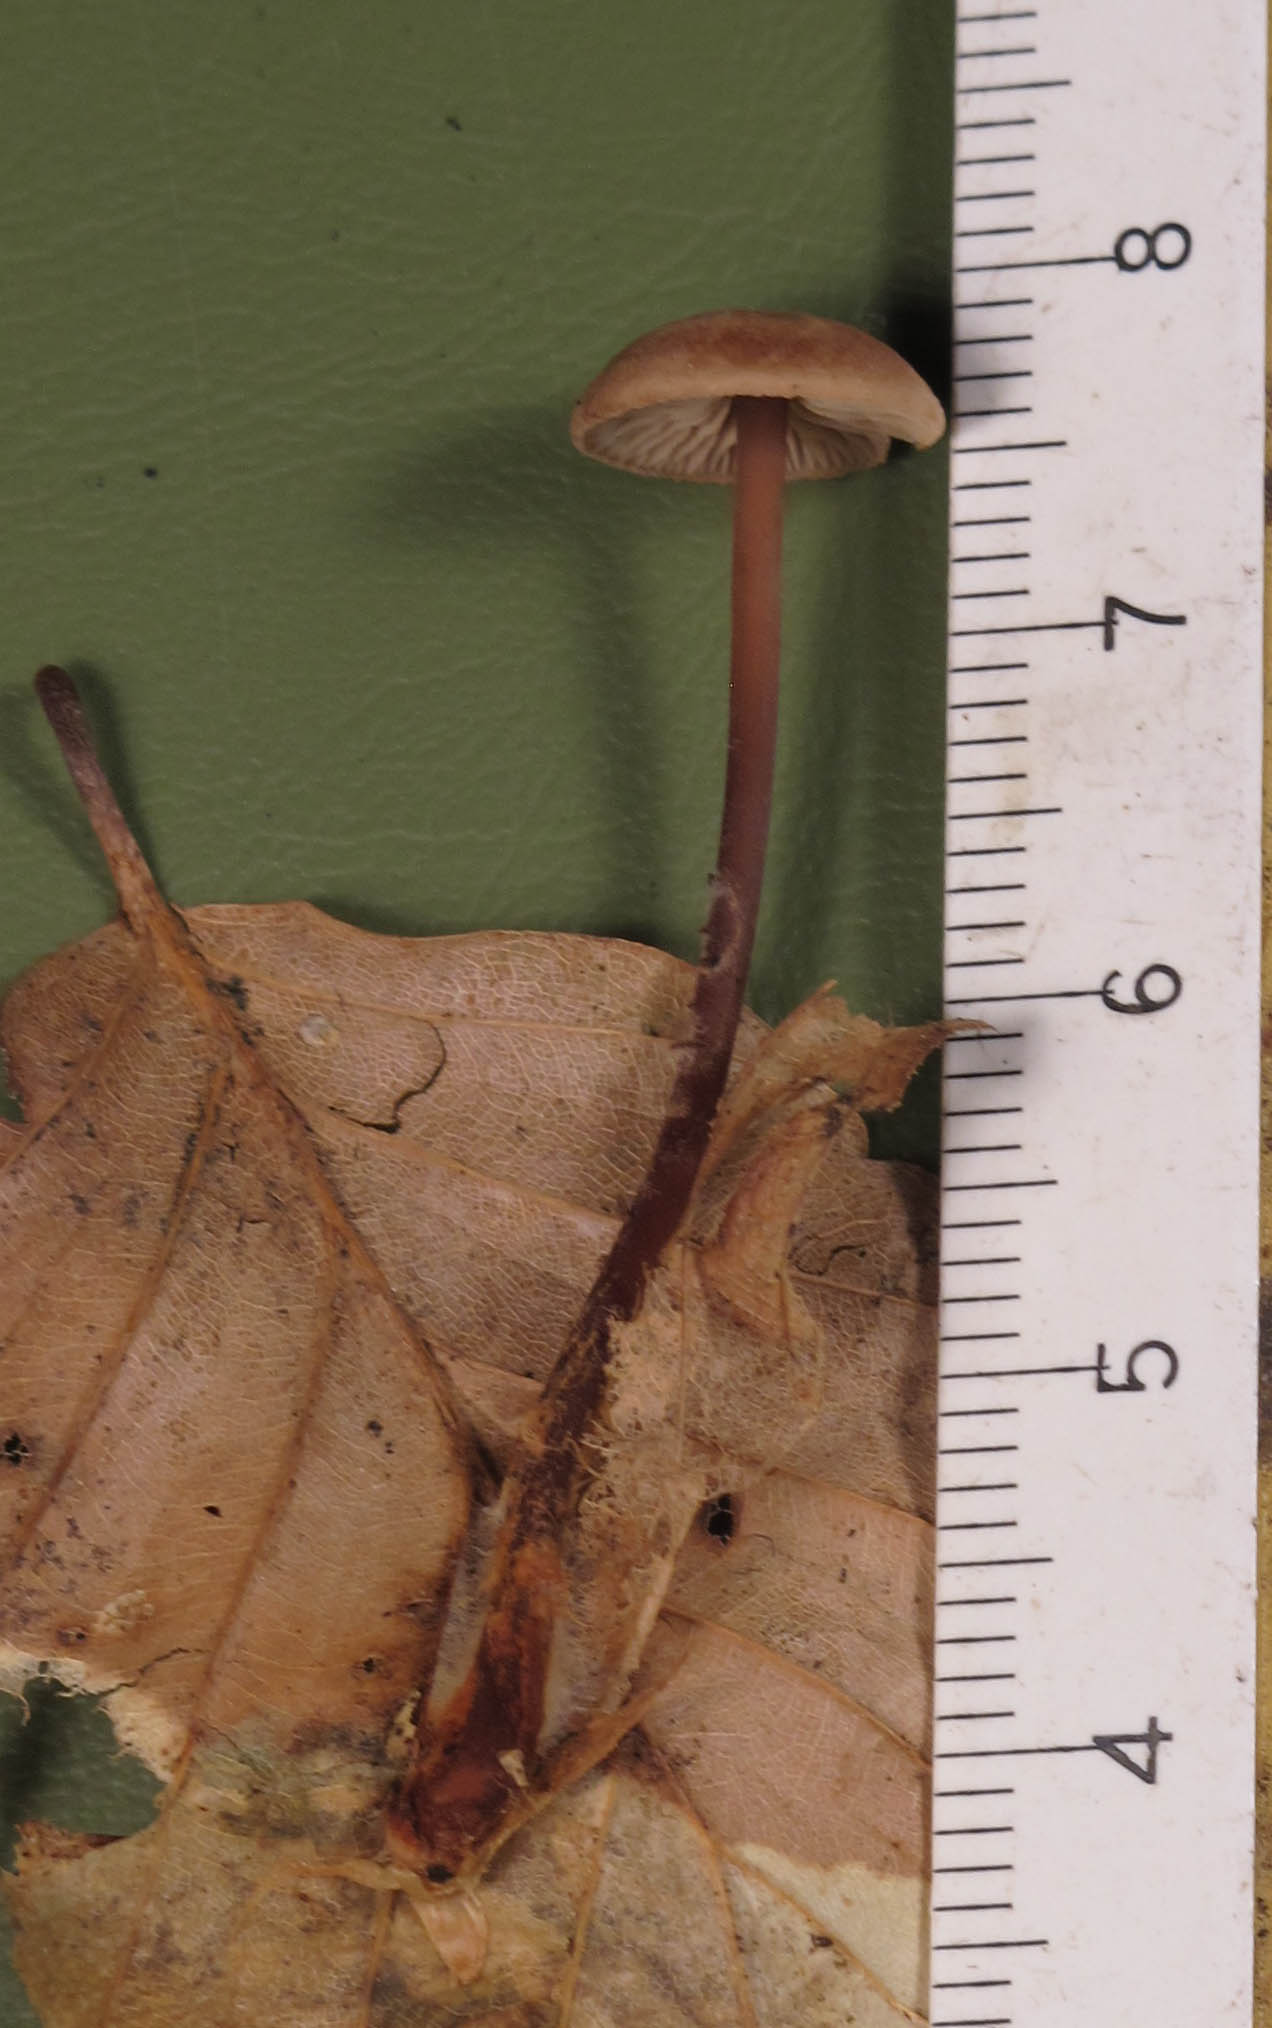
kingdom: Fungi
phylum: Basidiomycota
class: Agaricomycetes
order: Agaricales
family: Omphalotaceae
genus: Gymnopus
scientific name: Gymnopus fuscopurpureus
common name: purpurbrun fladhat
